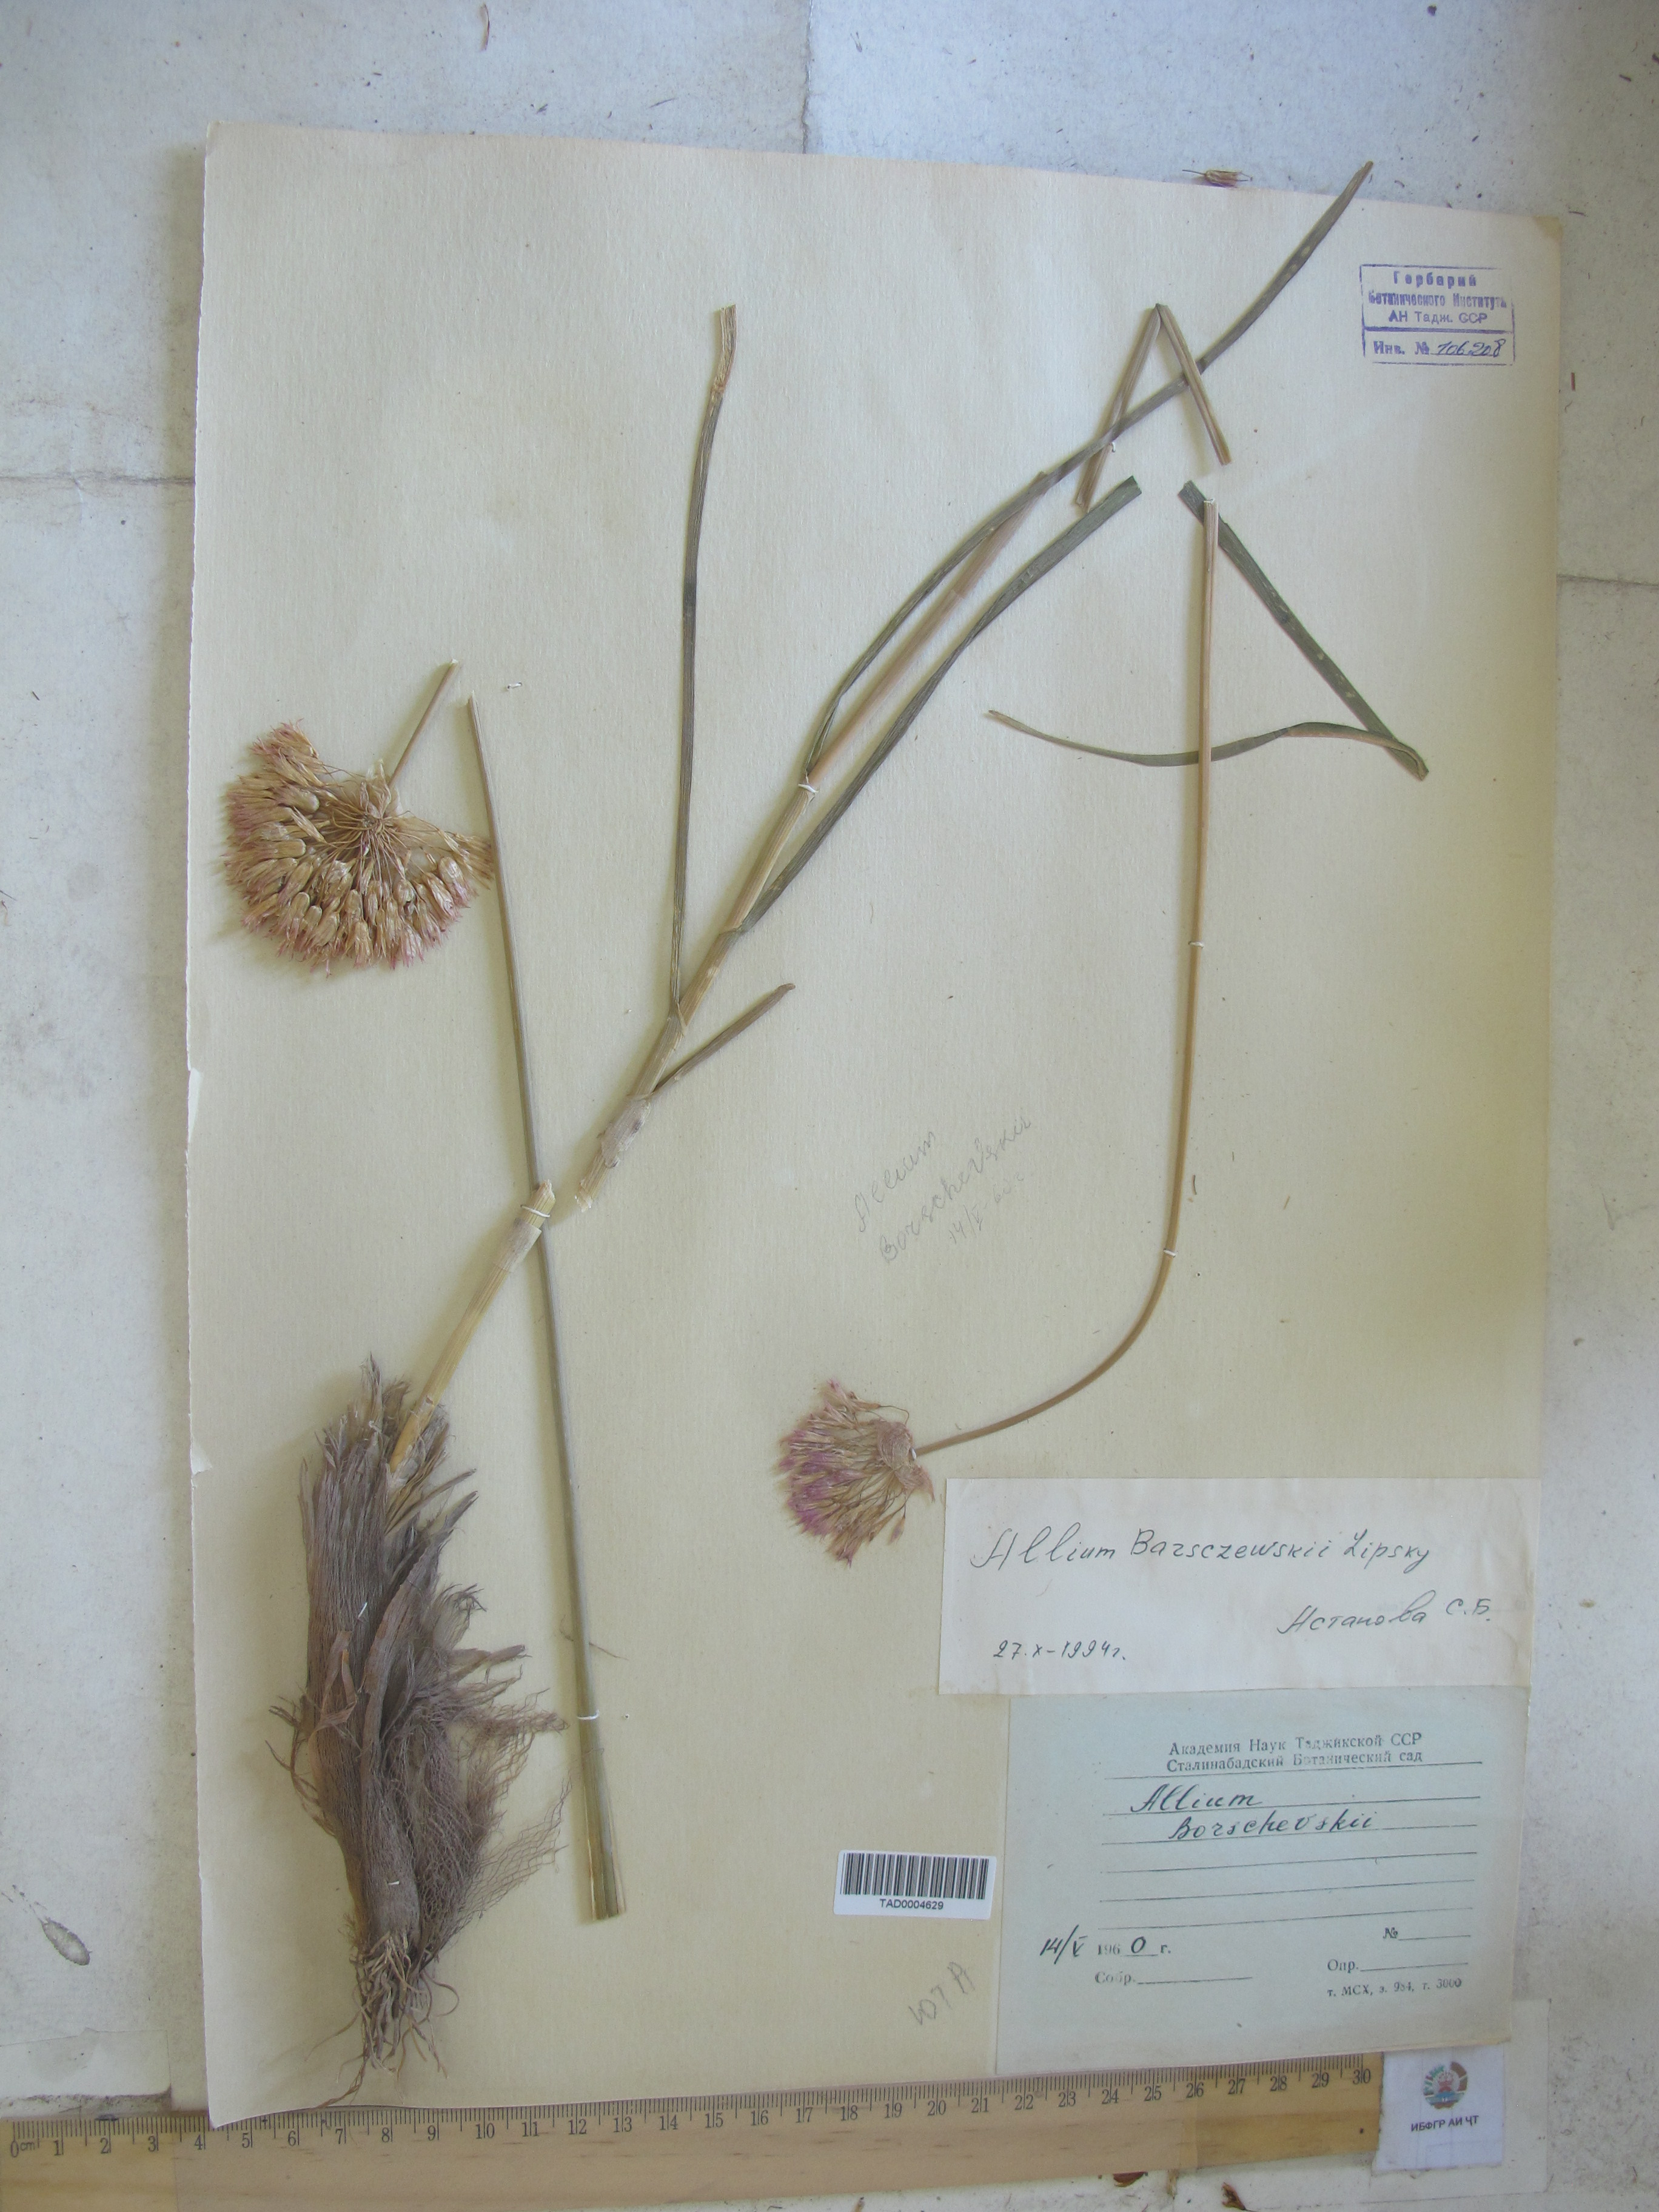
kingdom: Plantae
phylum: Tracheophyta
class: Liliopsida
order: Asparagales
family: Amaryllidaceae
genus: Allium
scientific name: Allium barsczewskii
